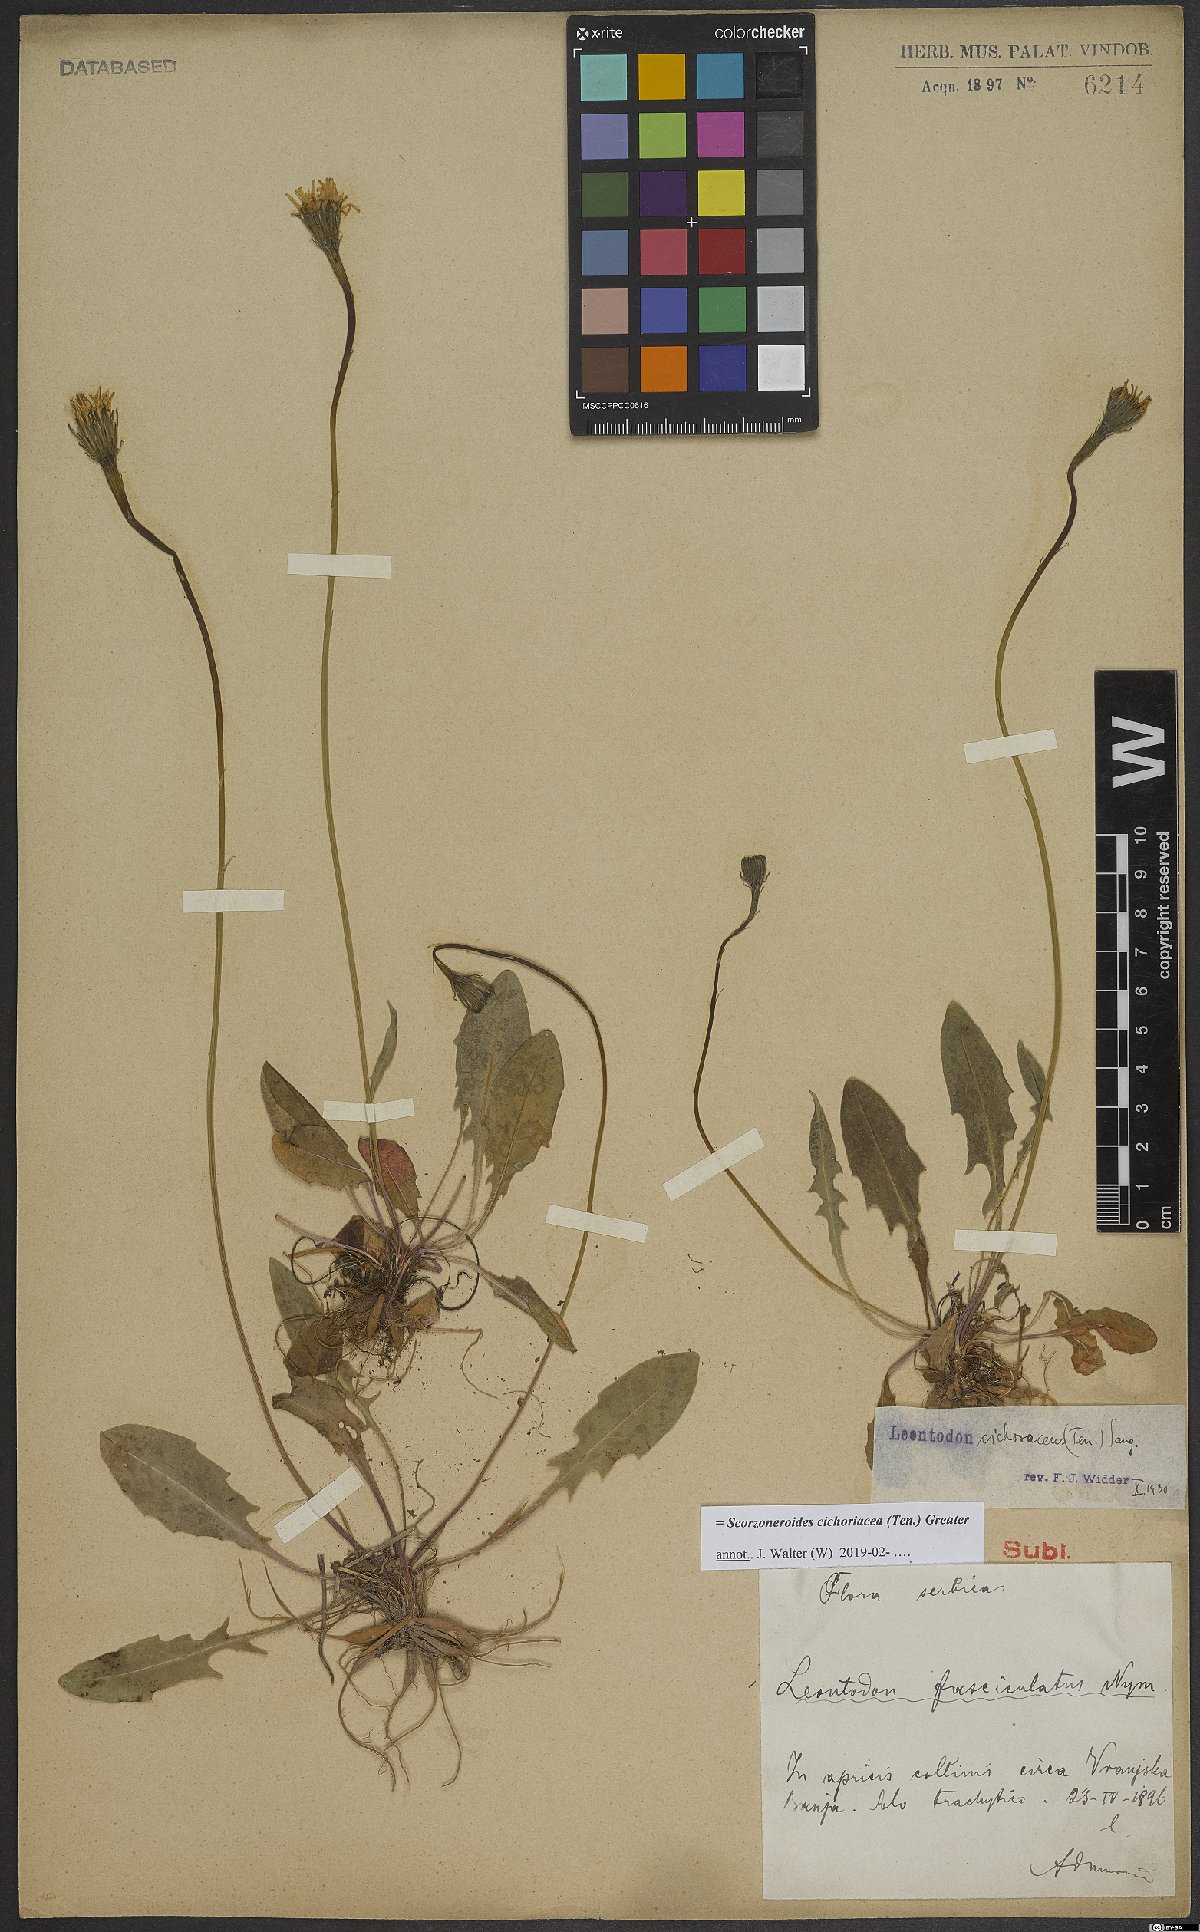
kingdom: Plantae
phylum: Tracheophyta
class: Magnoliopsida
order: Asterales
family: Asteraceae
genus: Scorzoneroides
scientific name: Scorzoneroides cichoriacea
